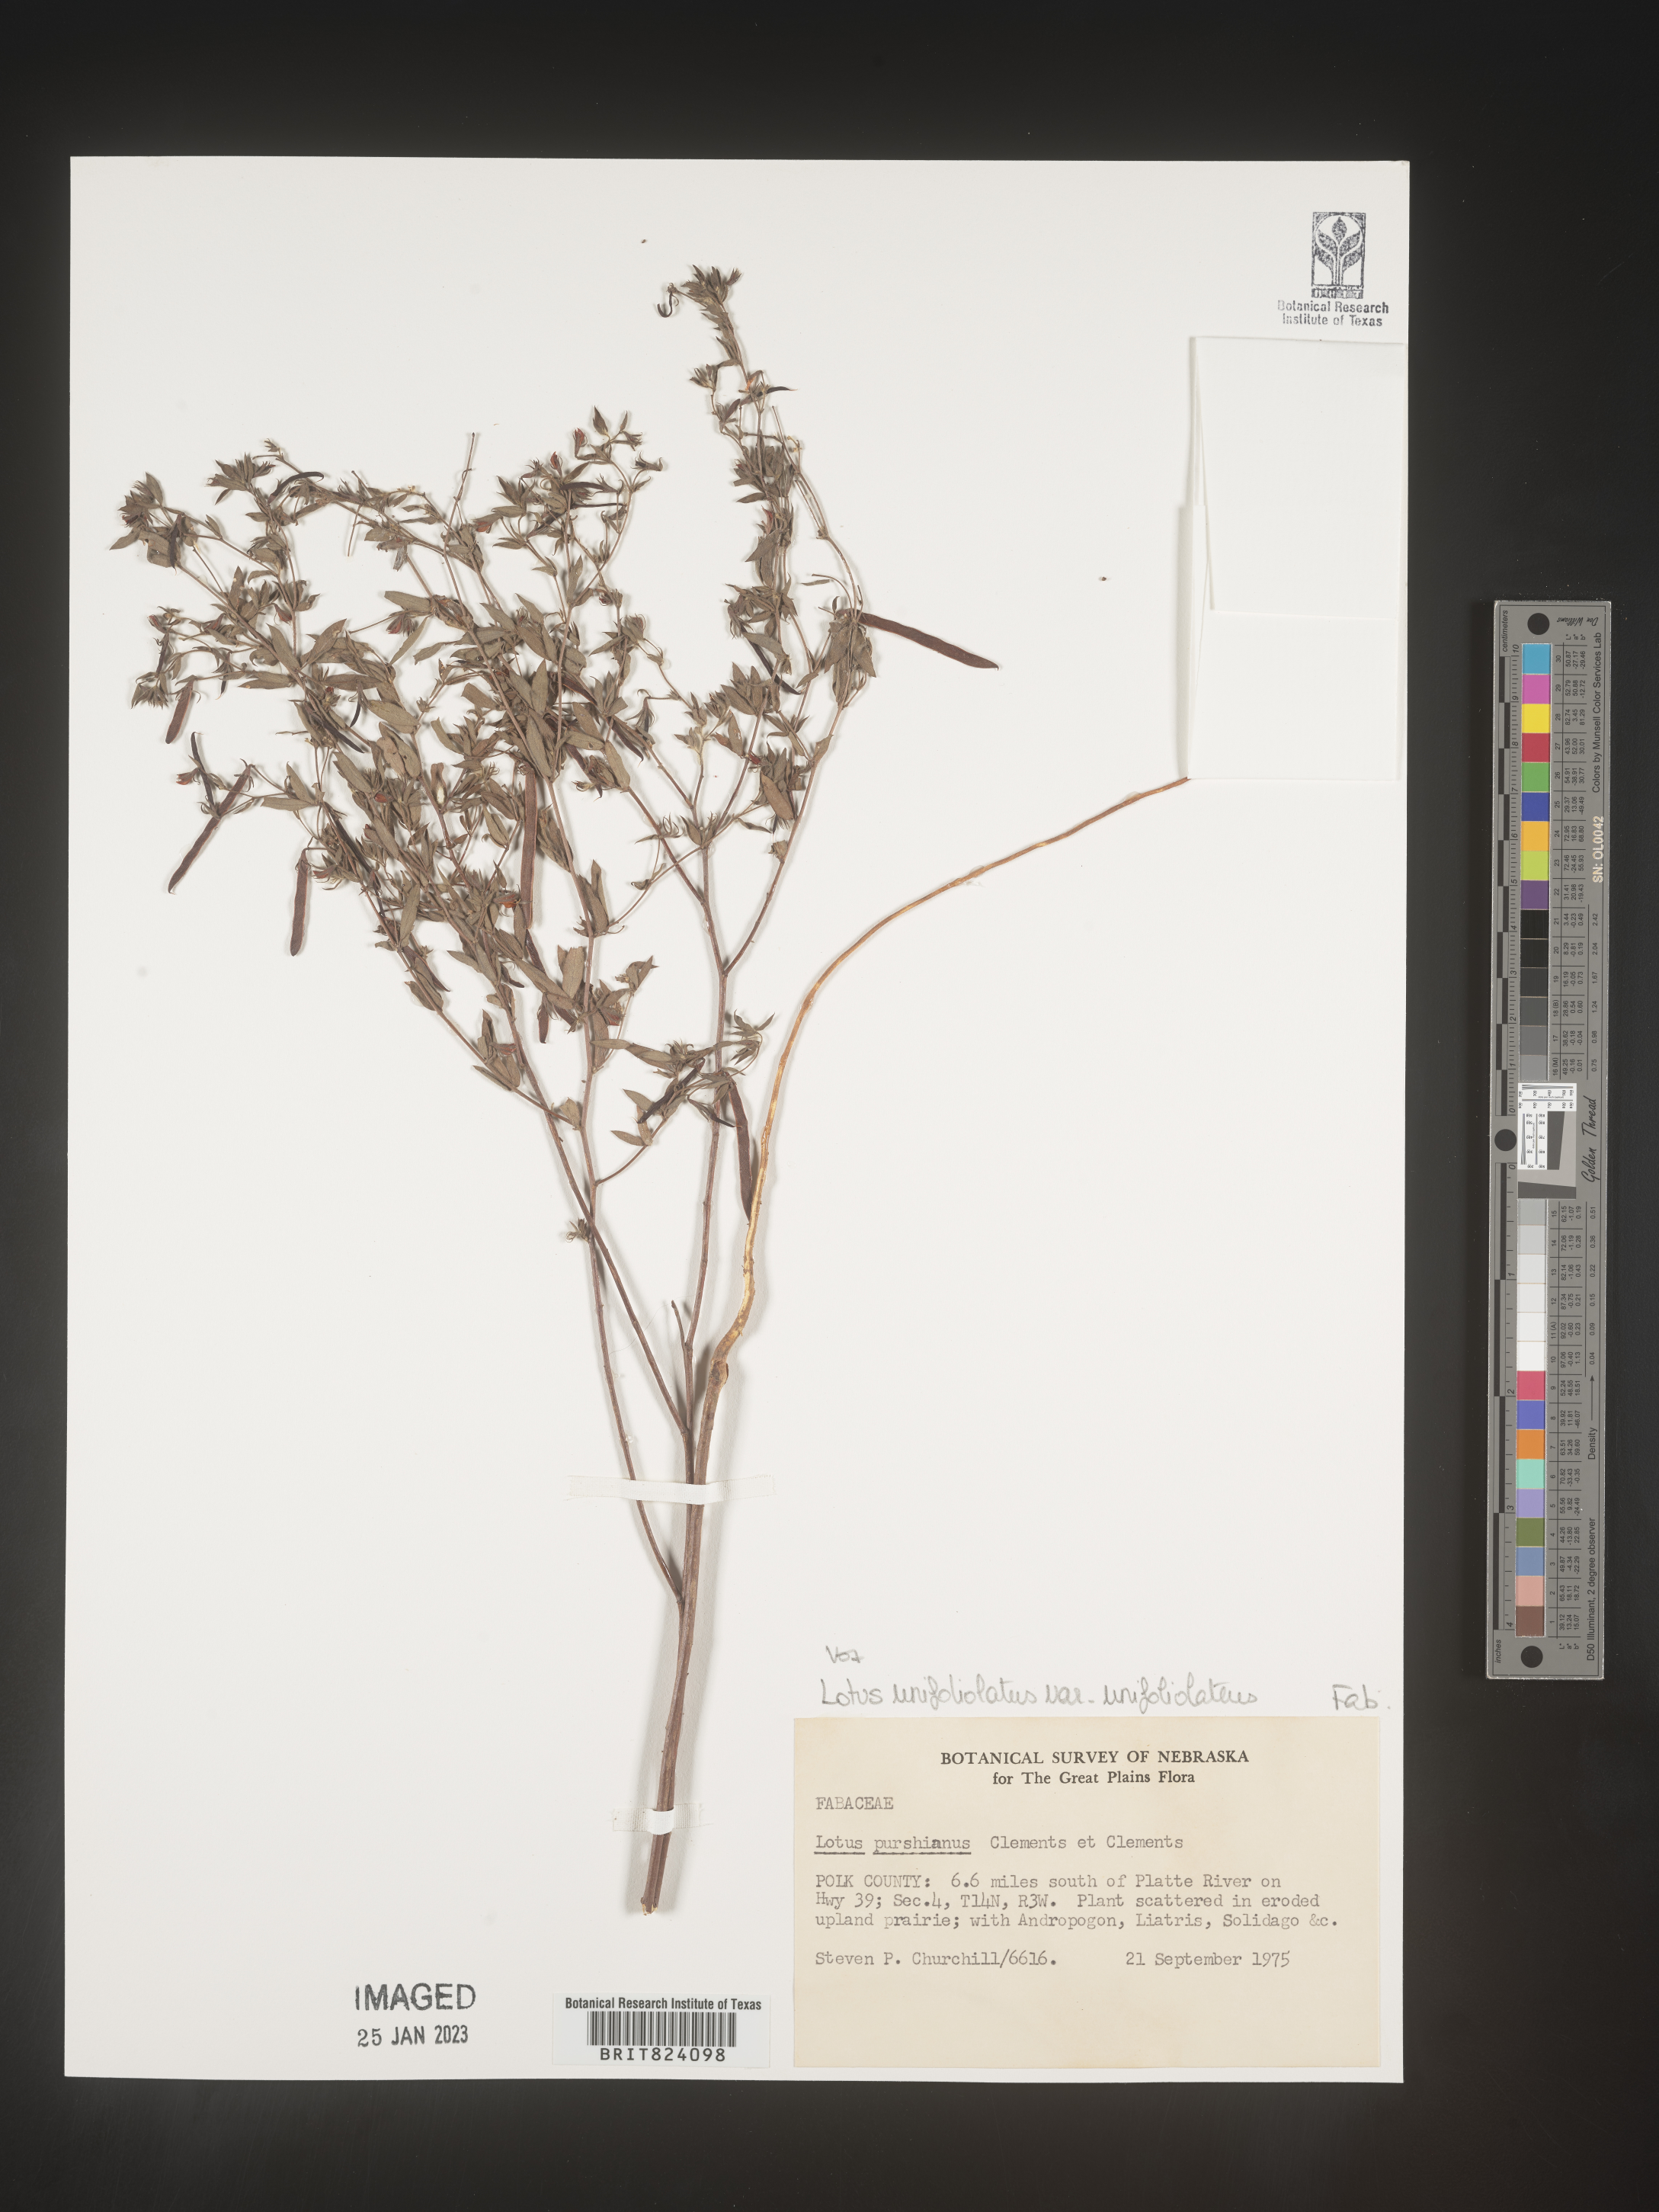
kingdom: Plantae
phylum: Tracheophyta
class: Magnoliopsida
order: Fabales
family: Fabaceae
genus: Acmispon
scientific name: Acmispon wrightii
